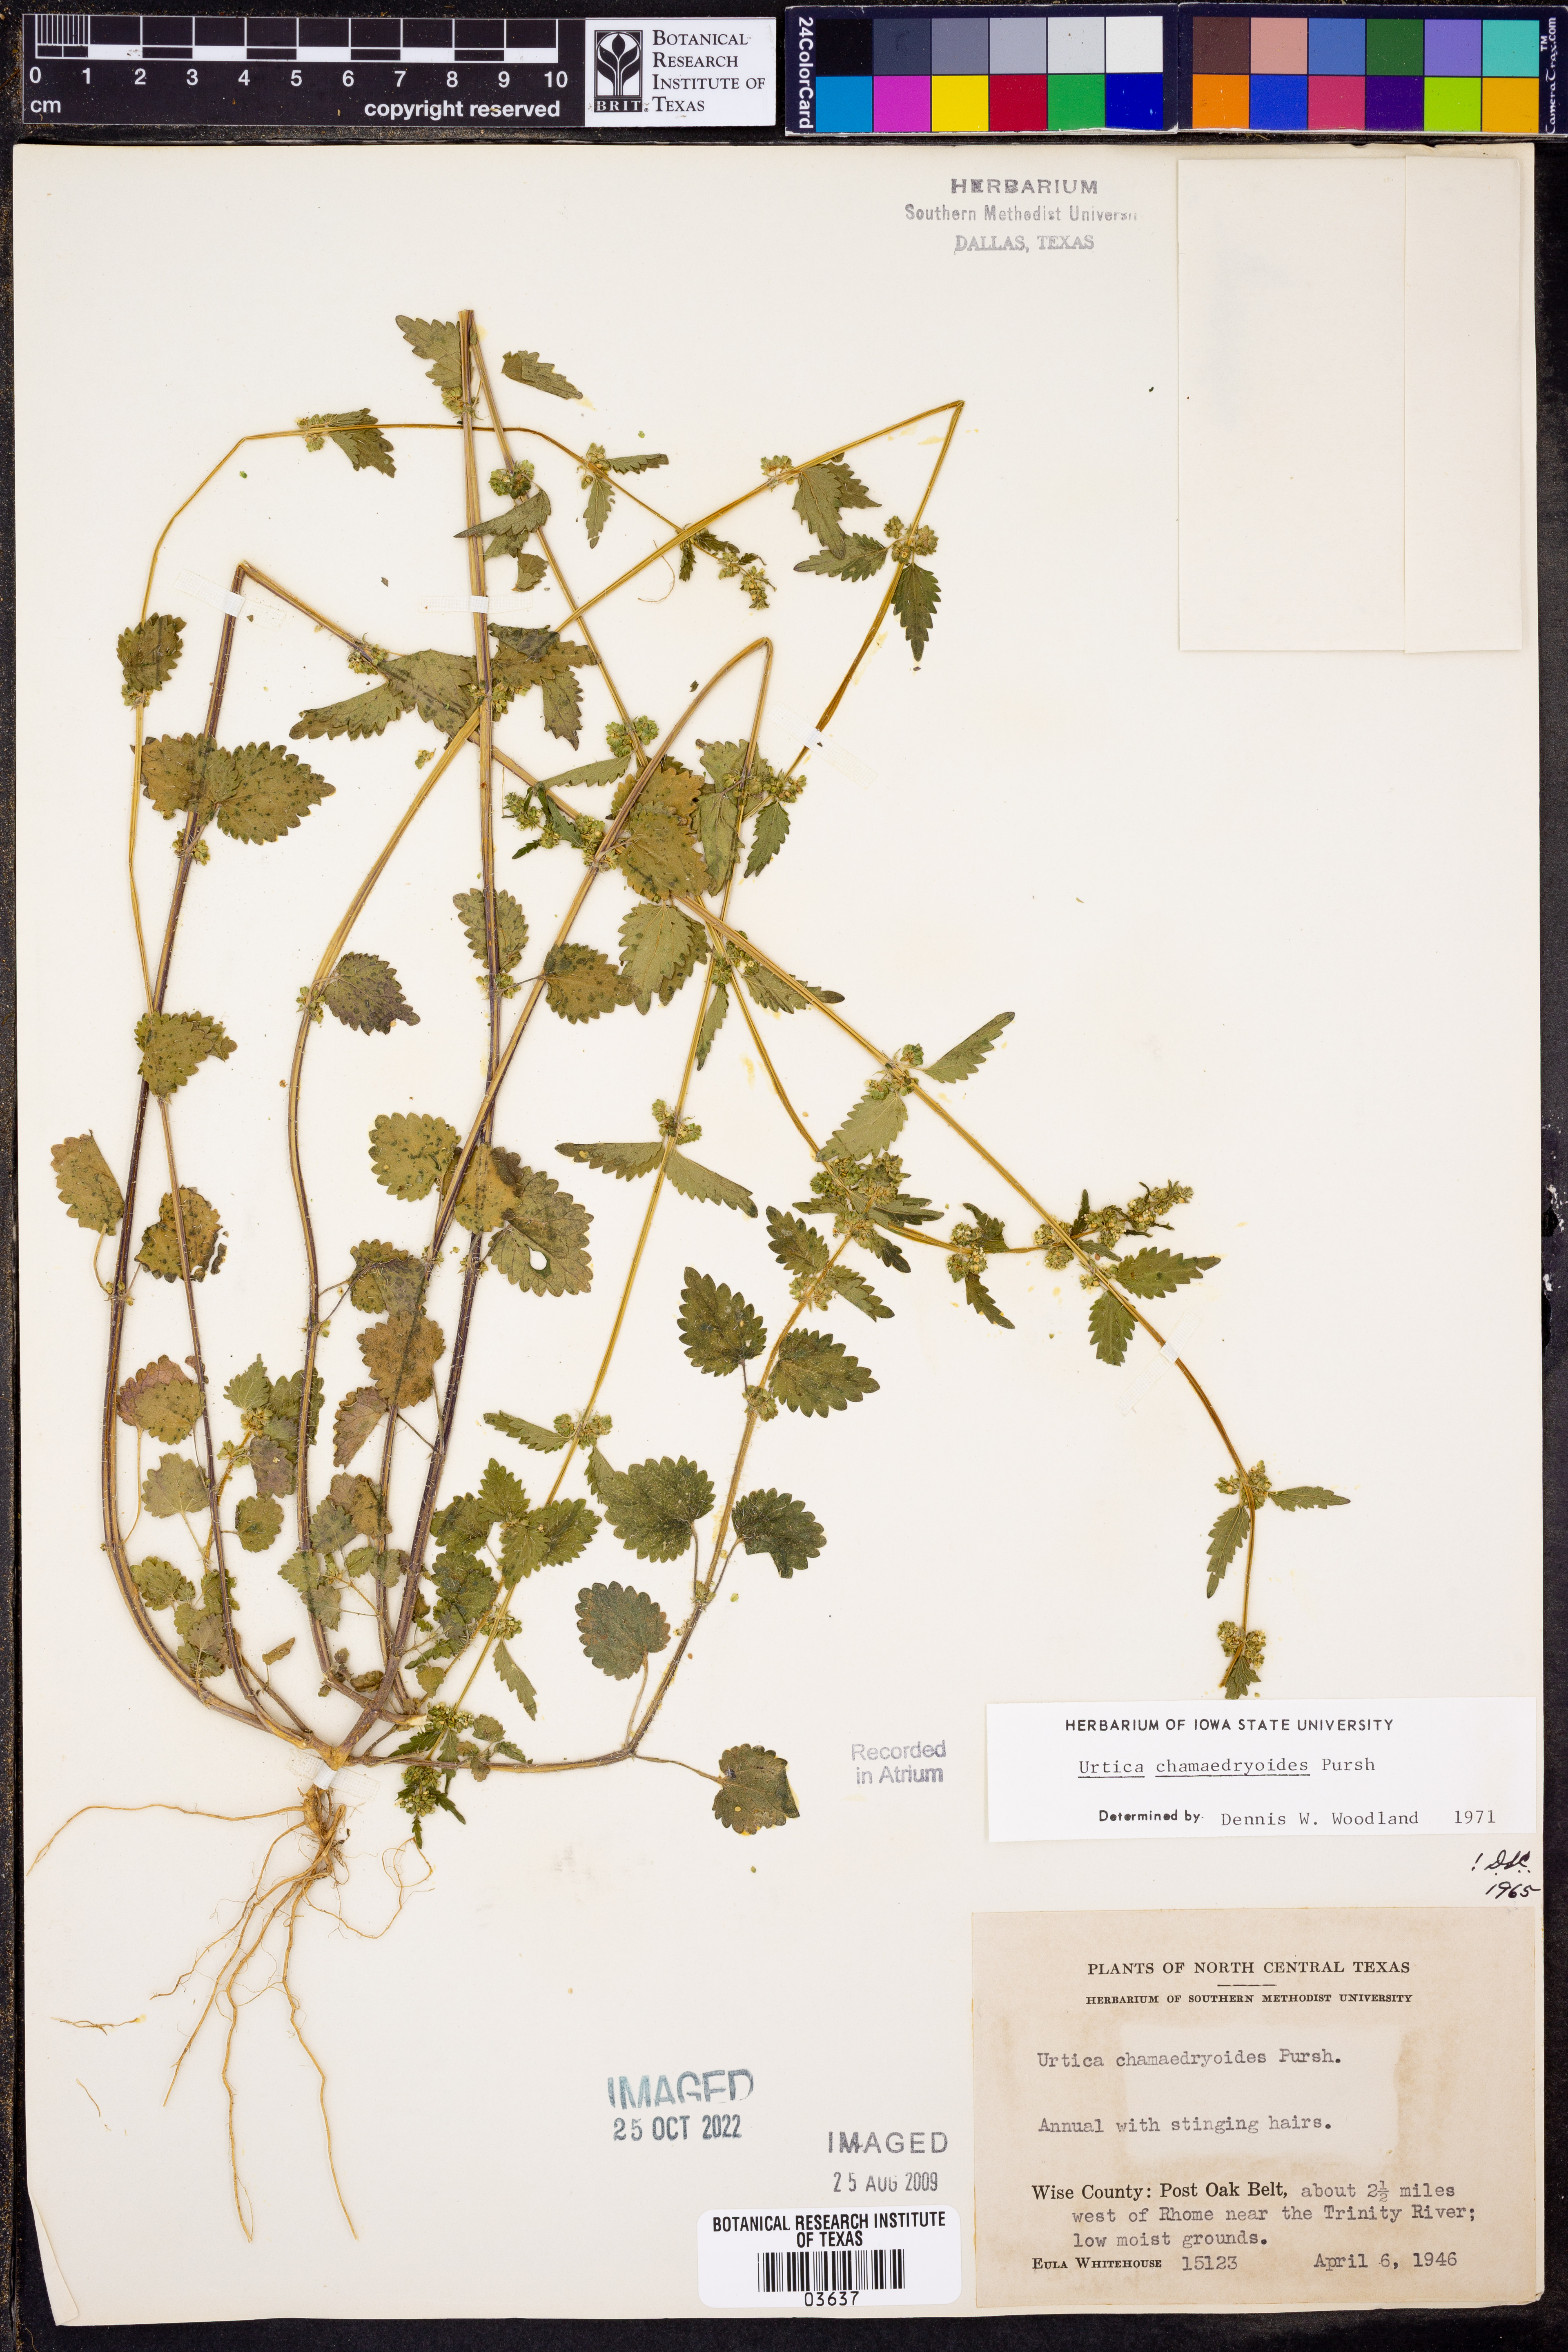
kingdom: Plantae
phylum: Tracheophyta
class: Magnoliopsida
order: Rosales
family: Urticaceae
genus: Urtica
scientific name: Urtica chamaedryoides
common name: Heart-leaf nettle
